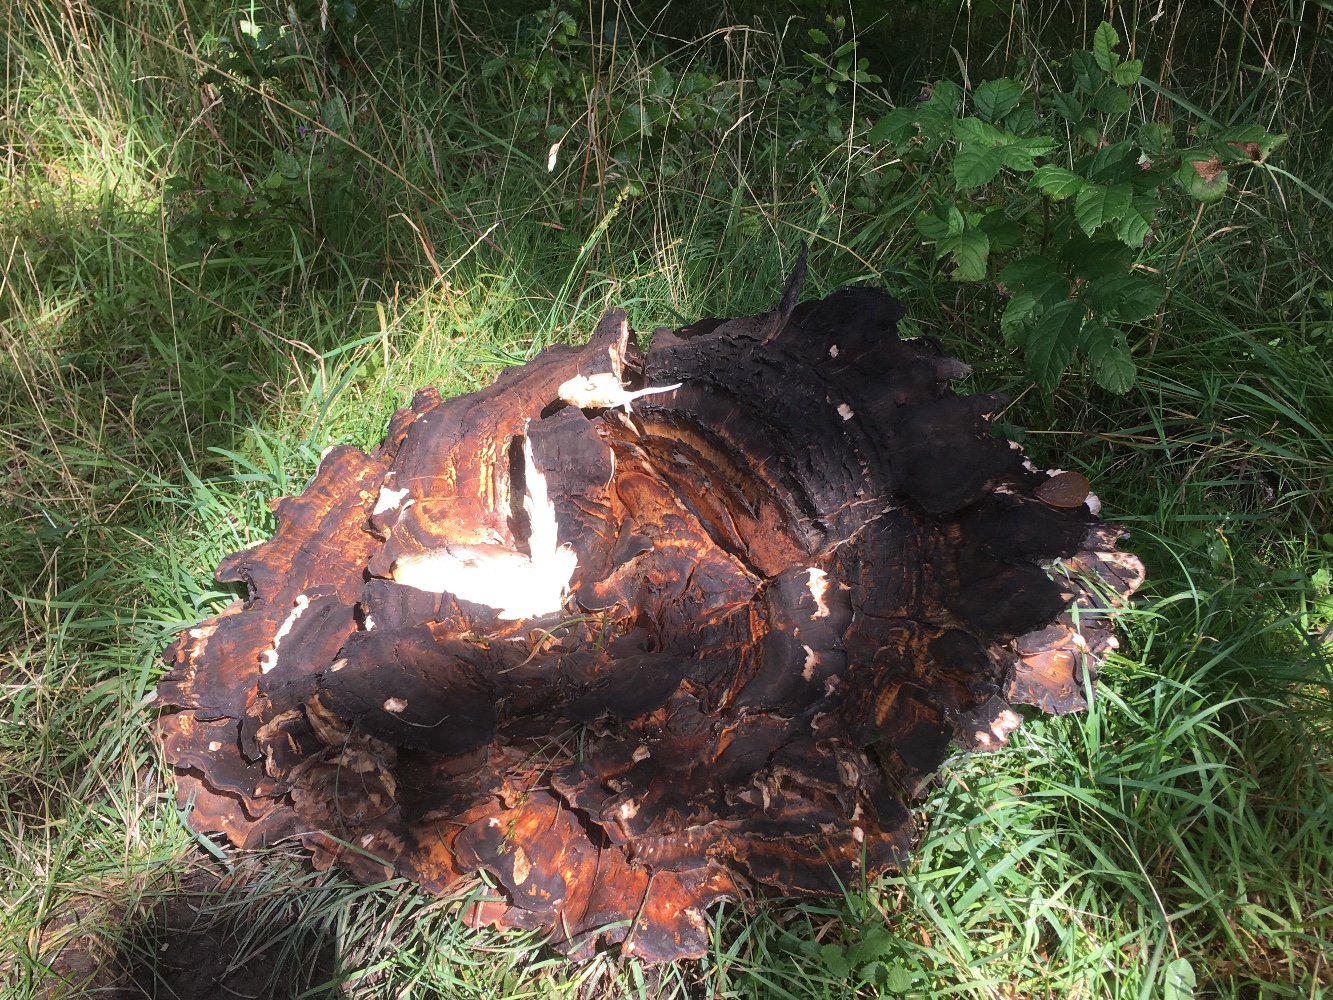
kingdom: Fungi
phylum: Basidiomycota
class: Agaricomycetes
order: Polyporales
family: Meripilaceae
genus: Meripilus
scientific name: Meripilus giganteus
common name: kæmpeporesvamp
